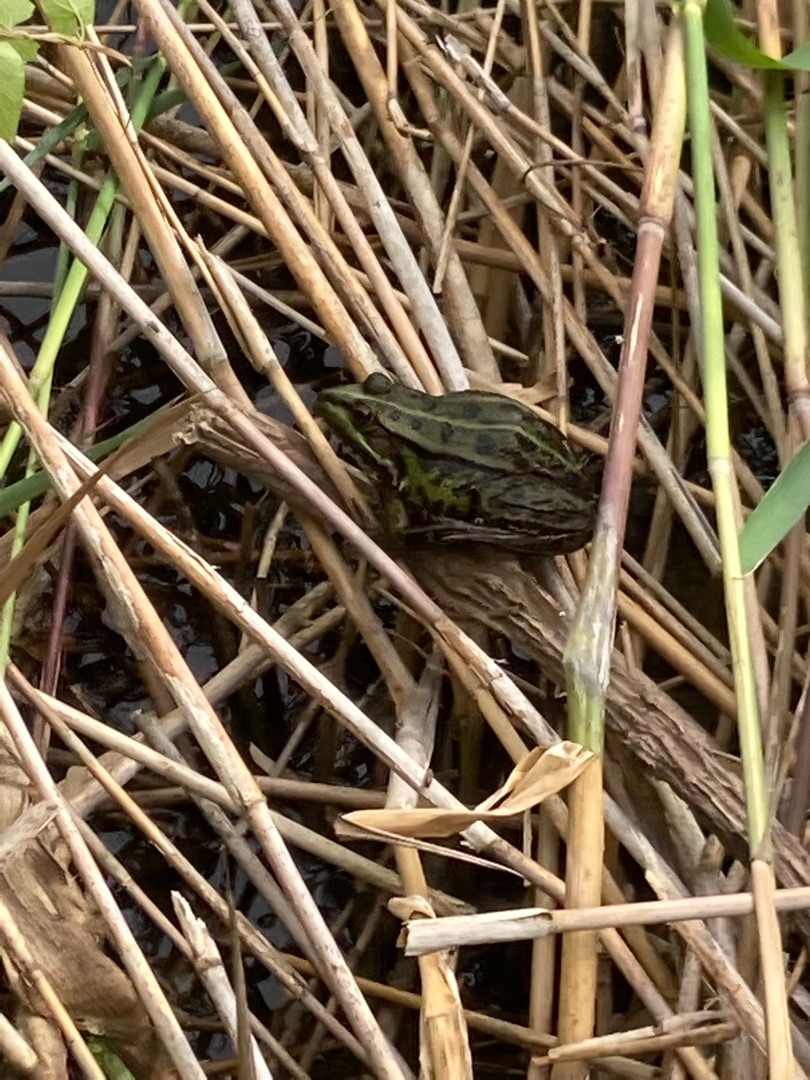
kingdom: Animalia
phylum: Chordata
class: Amphibia
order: Anura
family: Ranidae
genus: Pelophylax
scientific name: Pelophylax lessonae
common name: Grøn frø
